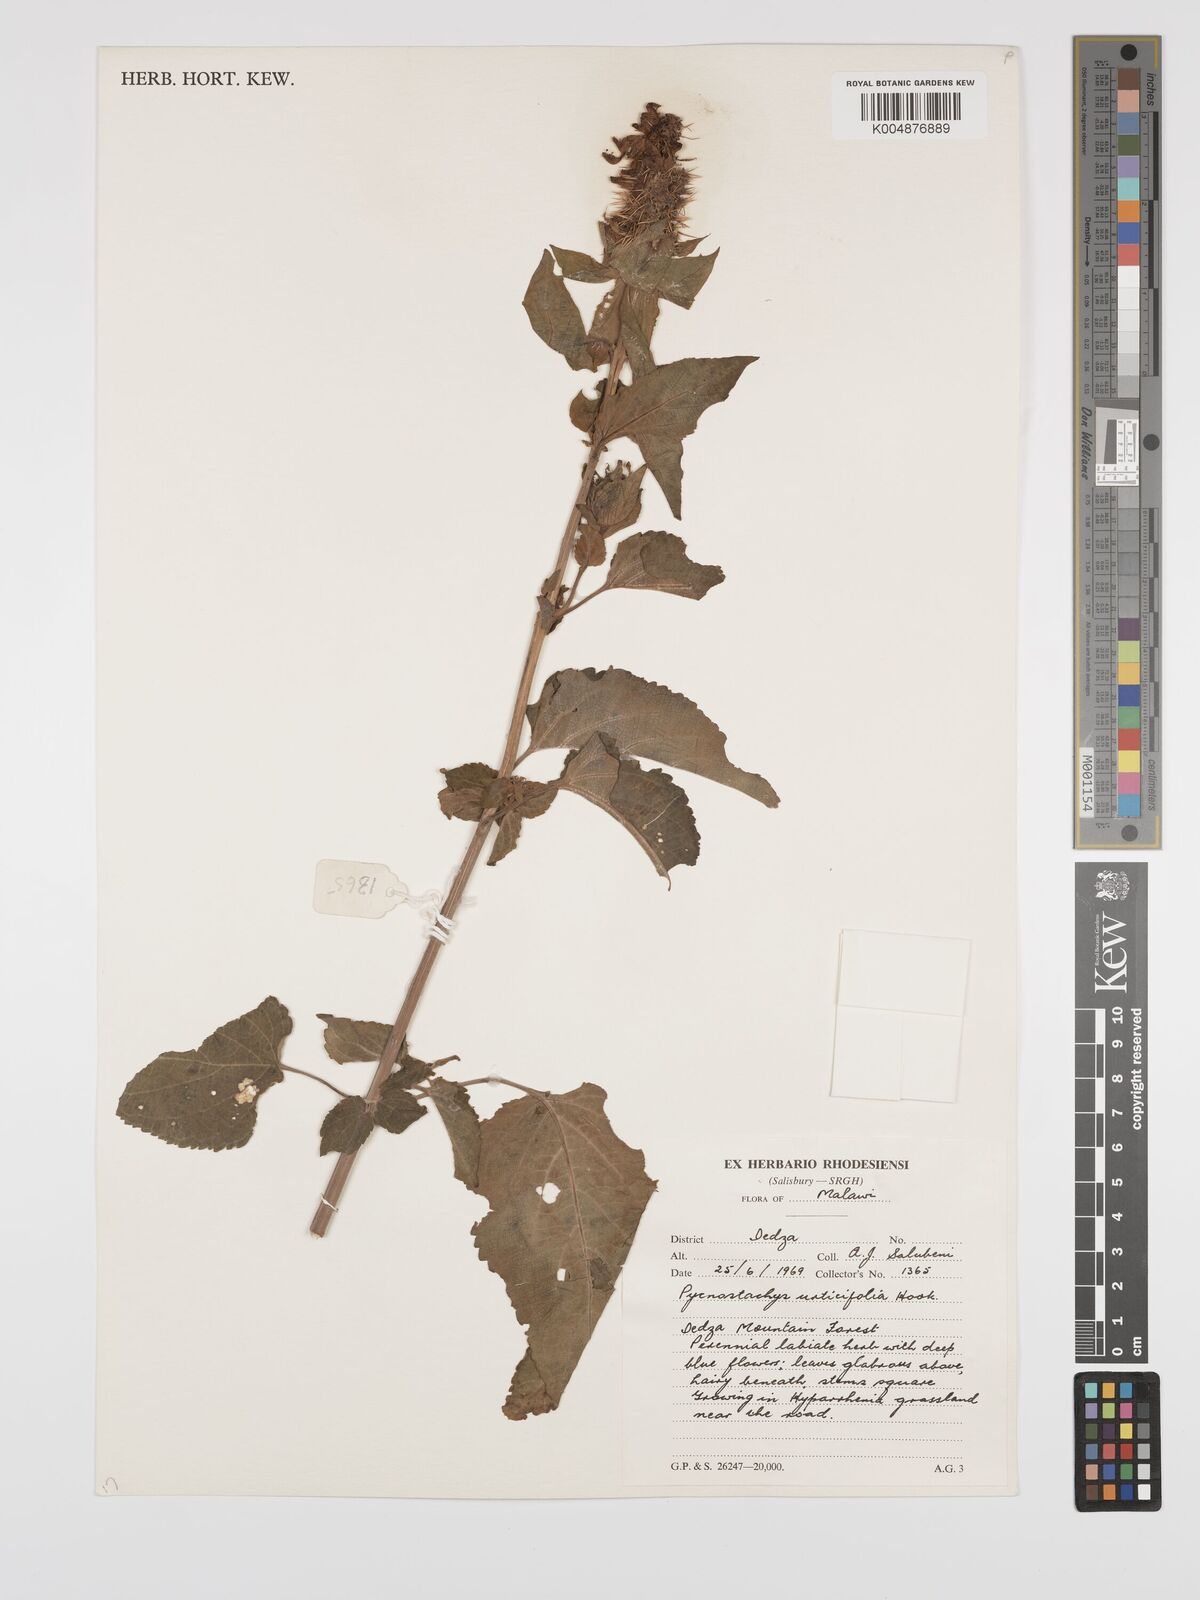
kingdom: Plantae
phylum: Tracheophyta
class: Magnoliopsida
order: Lamiales
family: Lamiaceae
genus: Coleus
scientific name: Coleus
